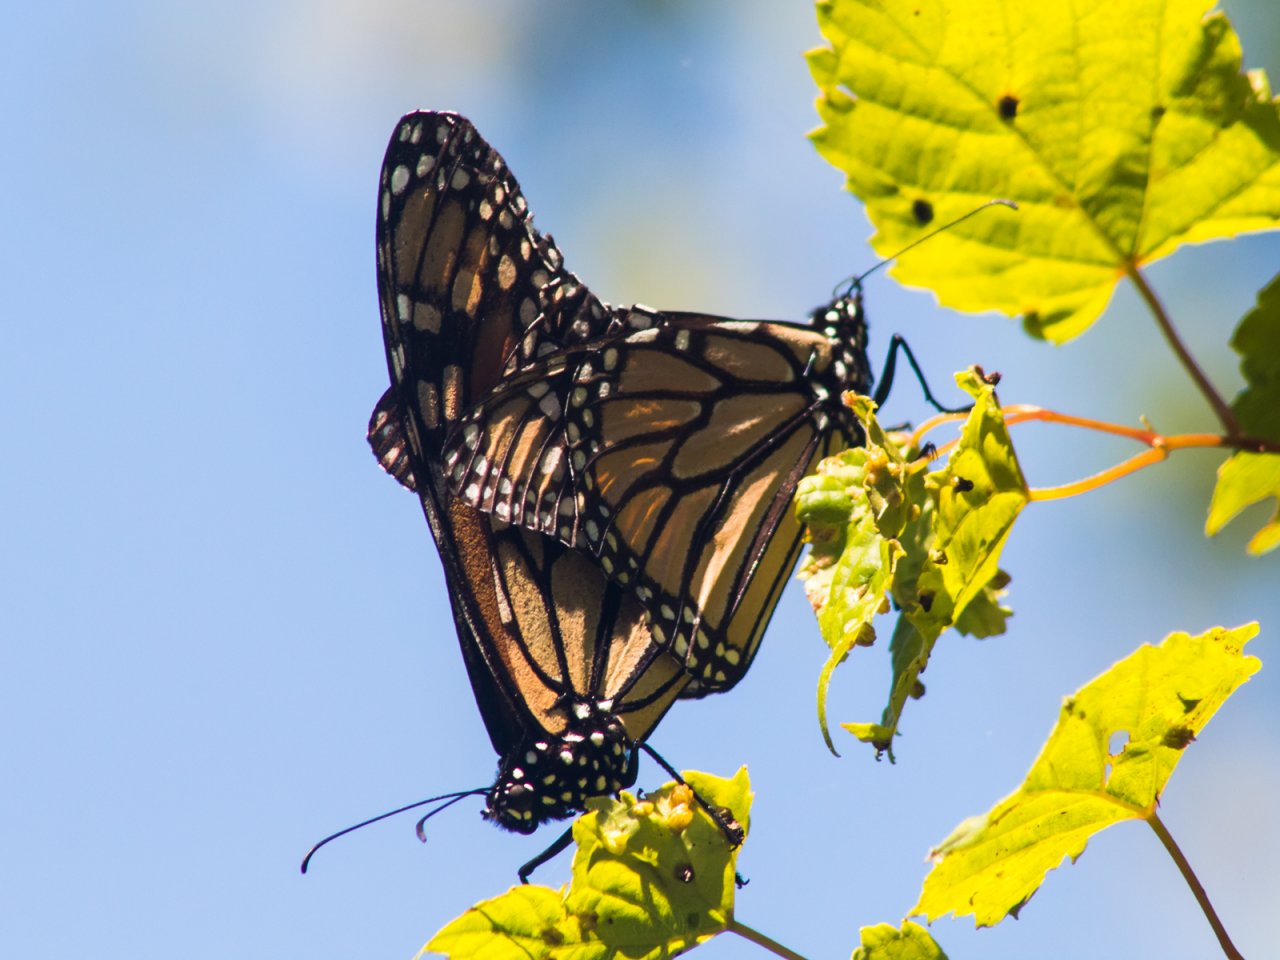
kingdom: Animalia
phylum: Arthropoda
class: Insecta
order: Lepidoptera
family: Nymphalidae
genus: Danaus
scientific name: Danaus plexippus
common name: Monarch
